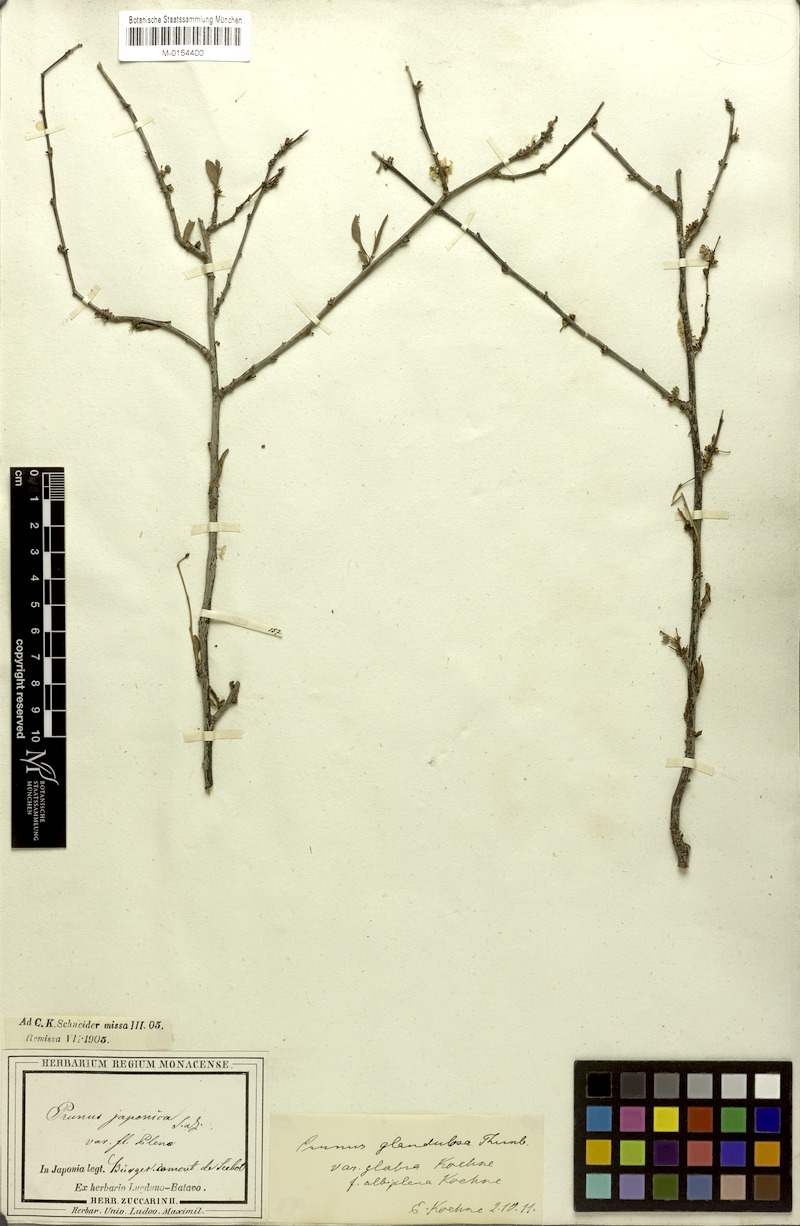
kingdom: Plantae
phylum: Tracheophyta
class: Magnoliopsida
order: Rosales
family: Rosaceae
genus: Prunus
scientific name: Prunus glandulosa
